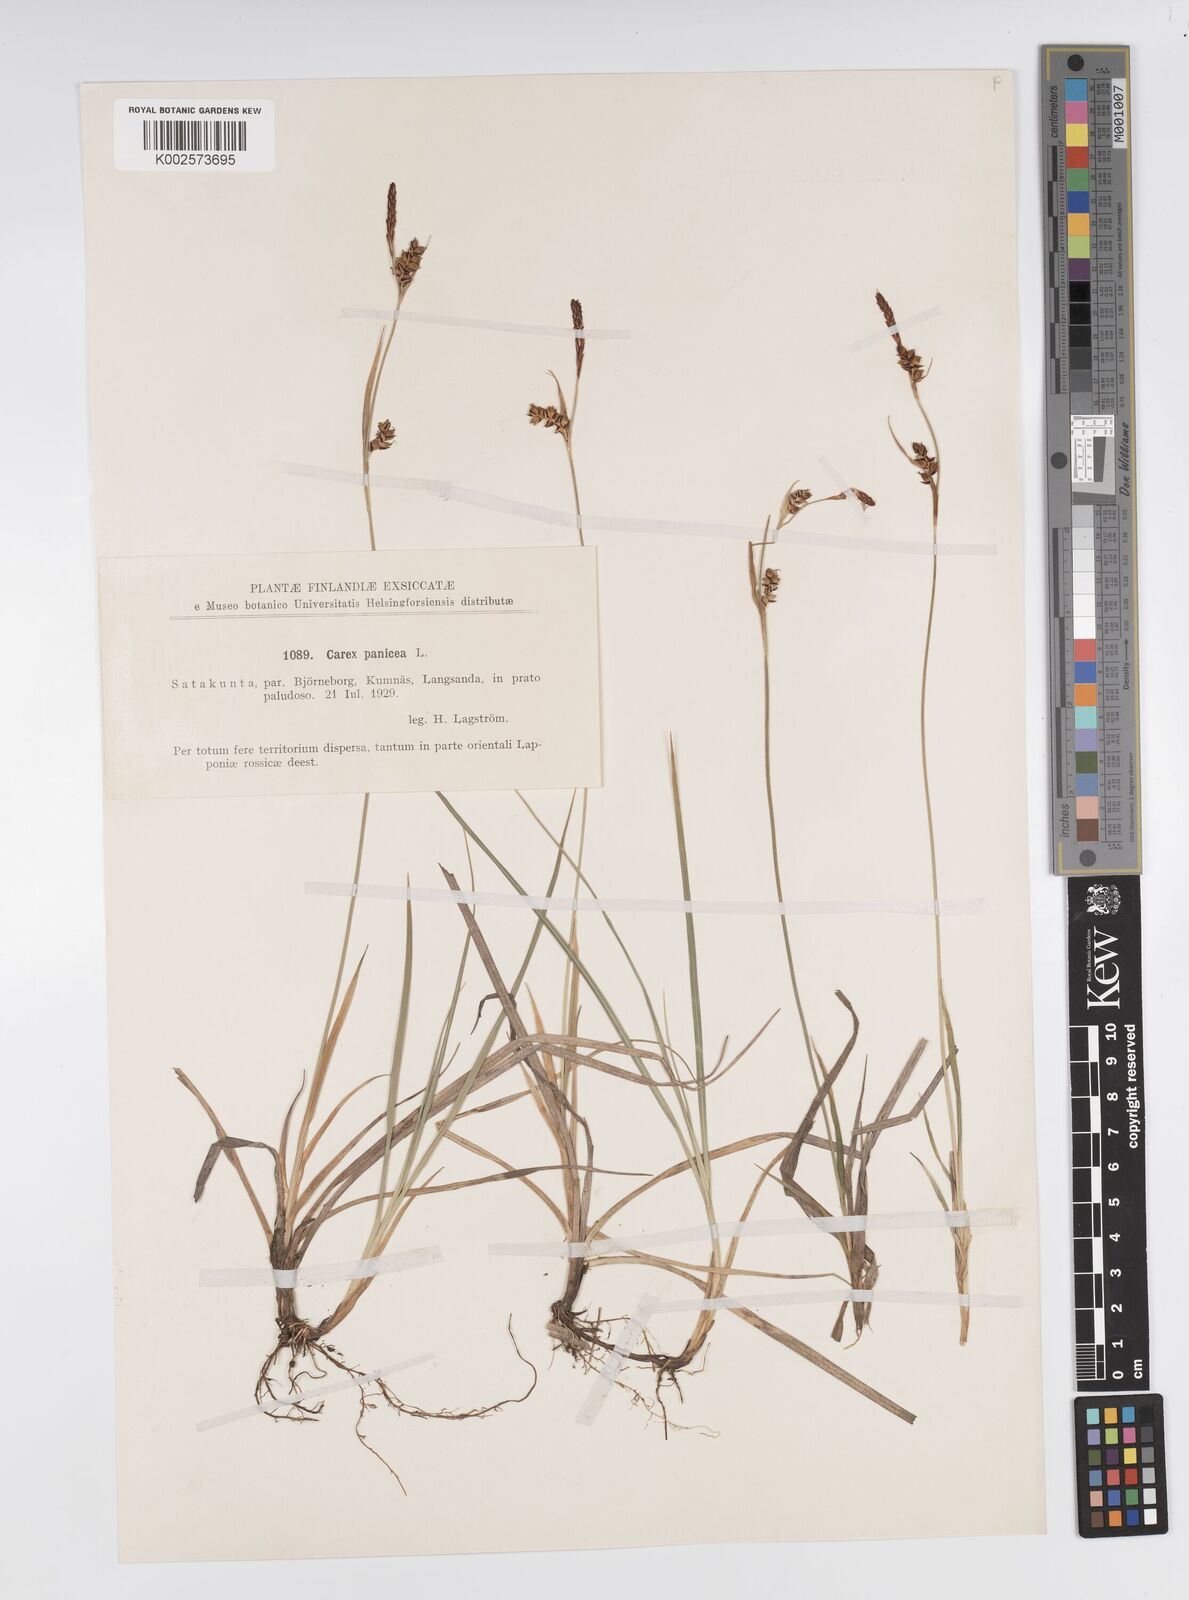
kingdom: Plantae
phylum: Tracheophyta
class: Liliopsida
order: Poales
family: Cyperaceae
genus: Carex
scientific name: Carex panicea
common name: Carnation sedge
